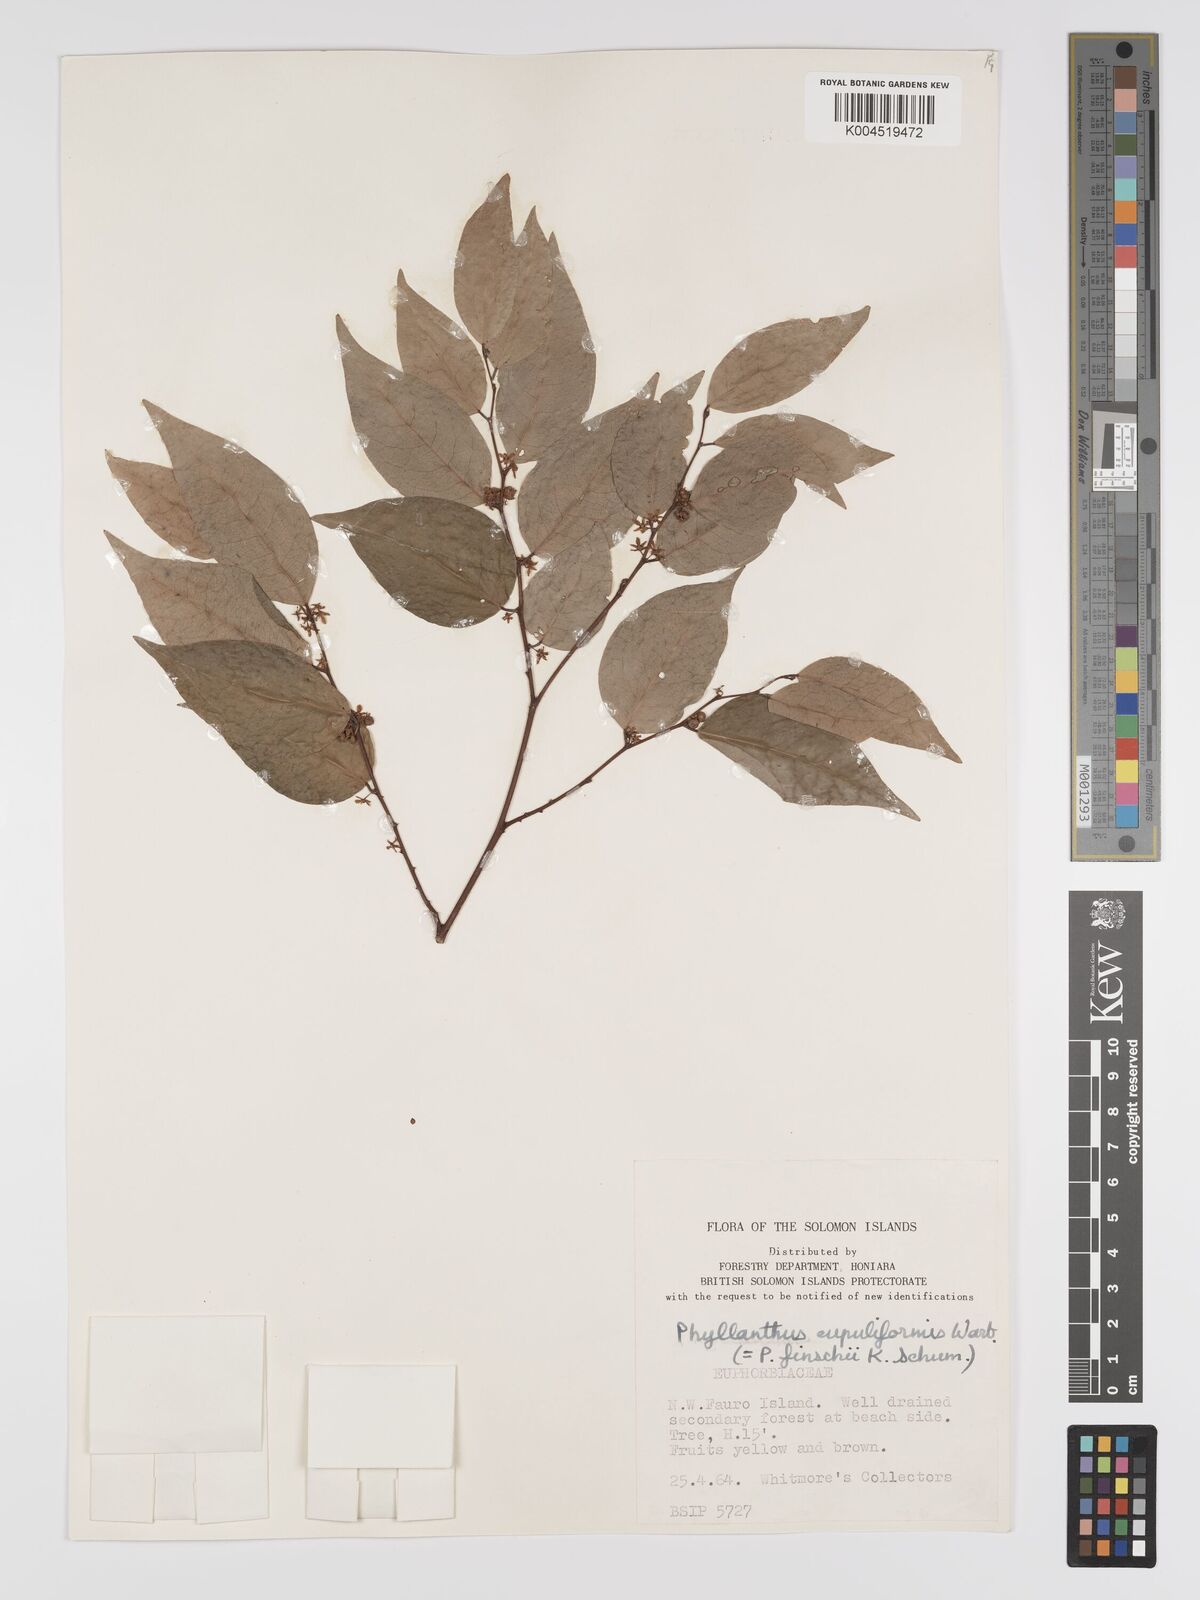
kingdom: Plantae
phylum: Tracheophyta
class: Magnoliopsida
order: Malpighiales
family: Phyllanthaceae
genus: Phyllanthus
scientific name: Phyllanthus finschii
